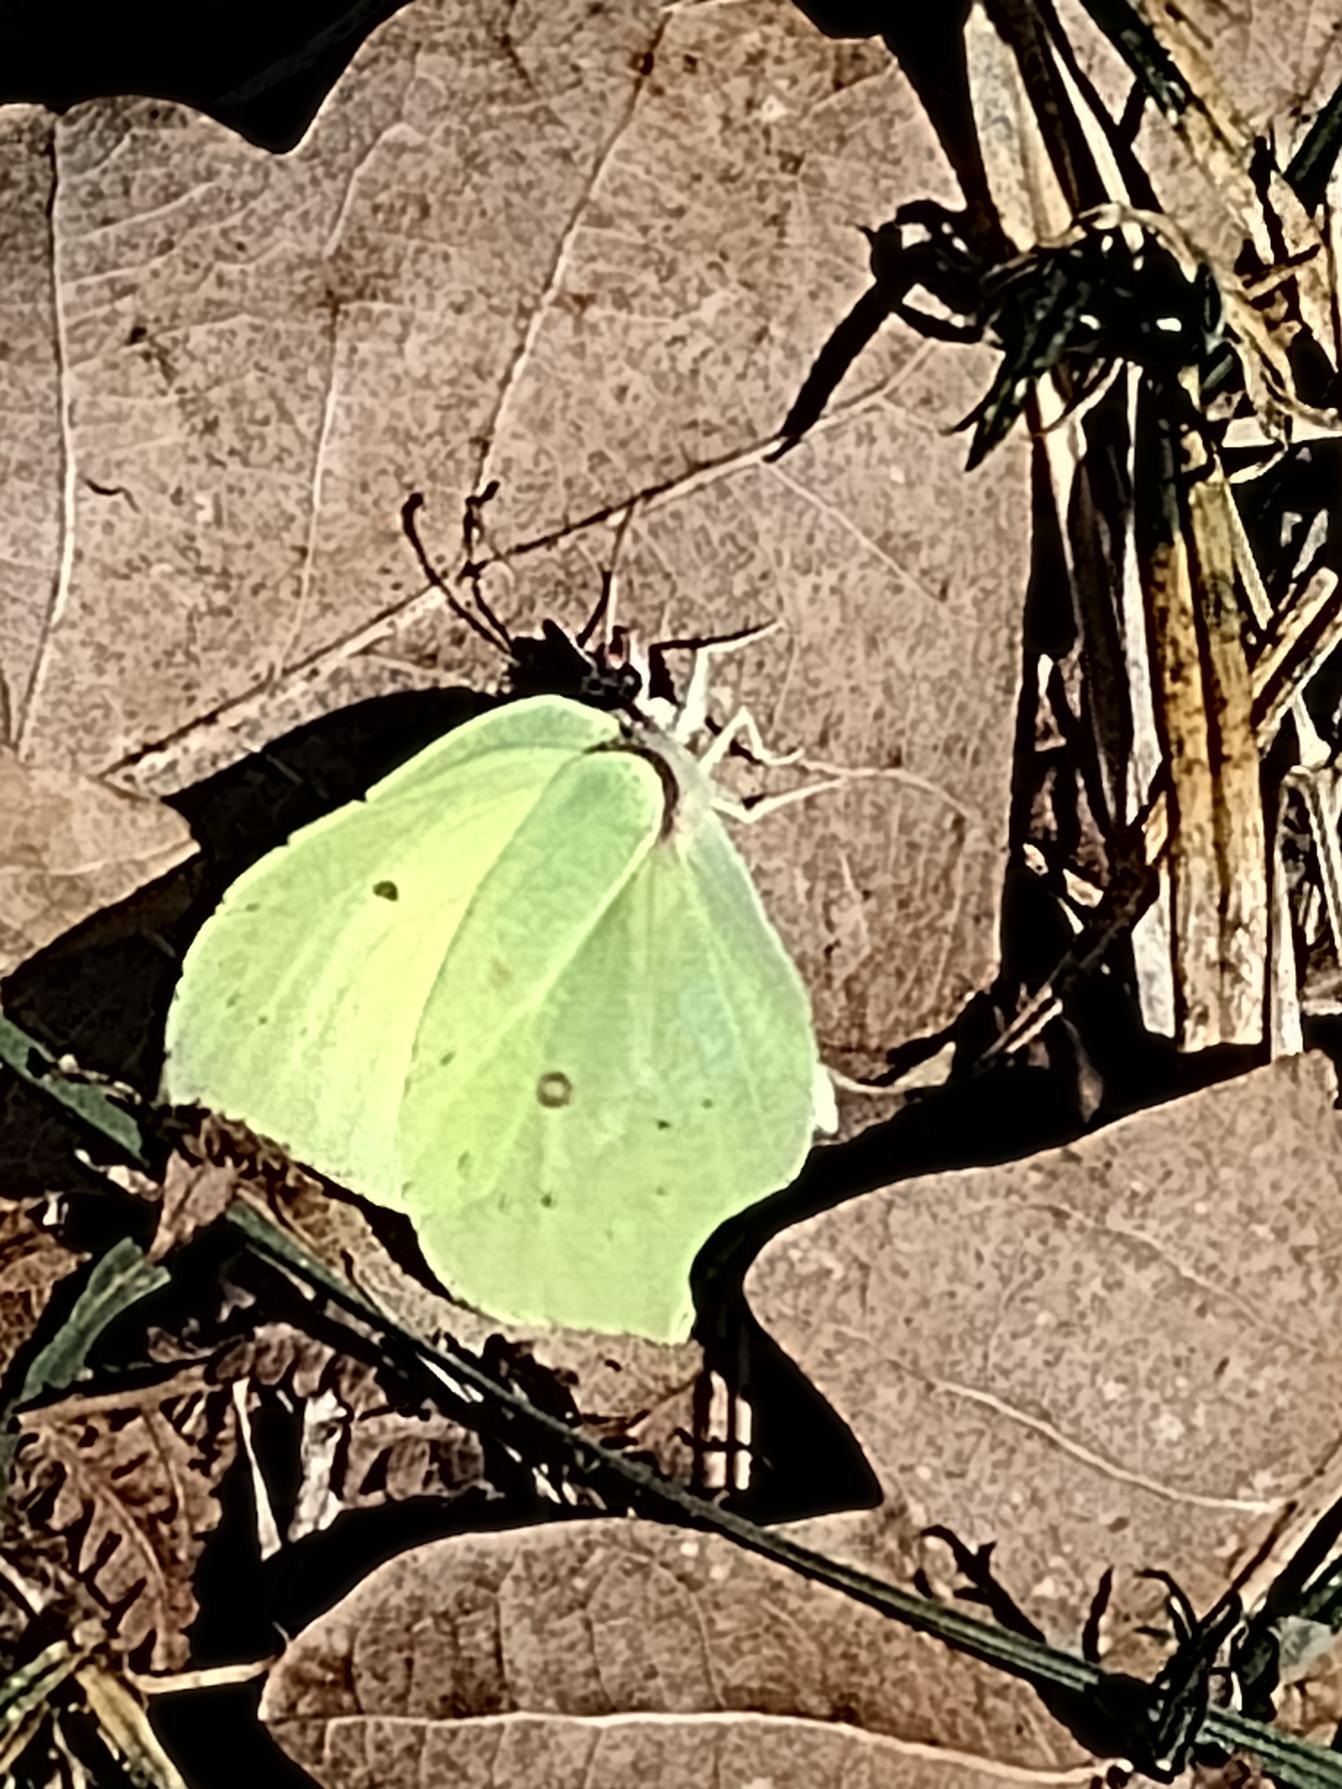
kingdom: Animalia
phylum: Arthropoda
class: Insecta
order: Lepidoptera
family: Pieridae
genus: Gonepteryx
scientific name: Gonepteryx rhamni
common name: Citronsommerfugl
